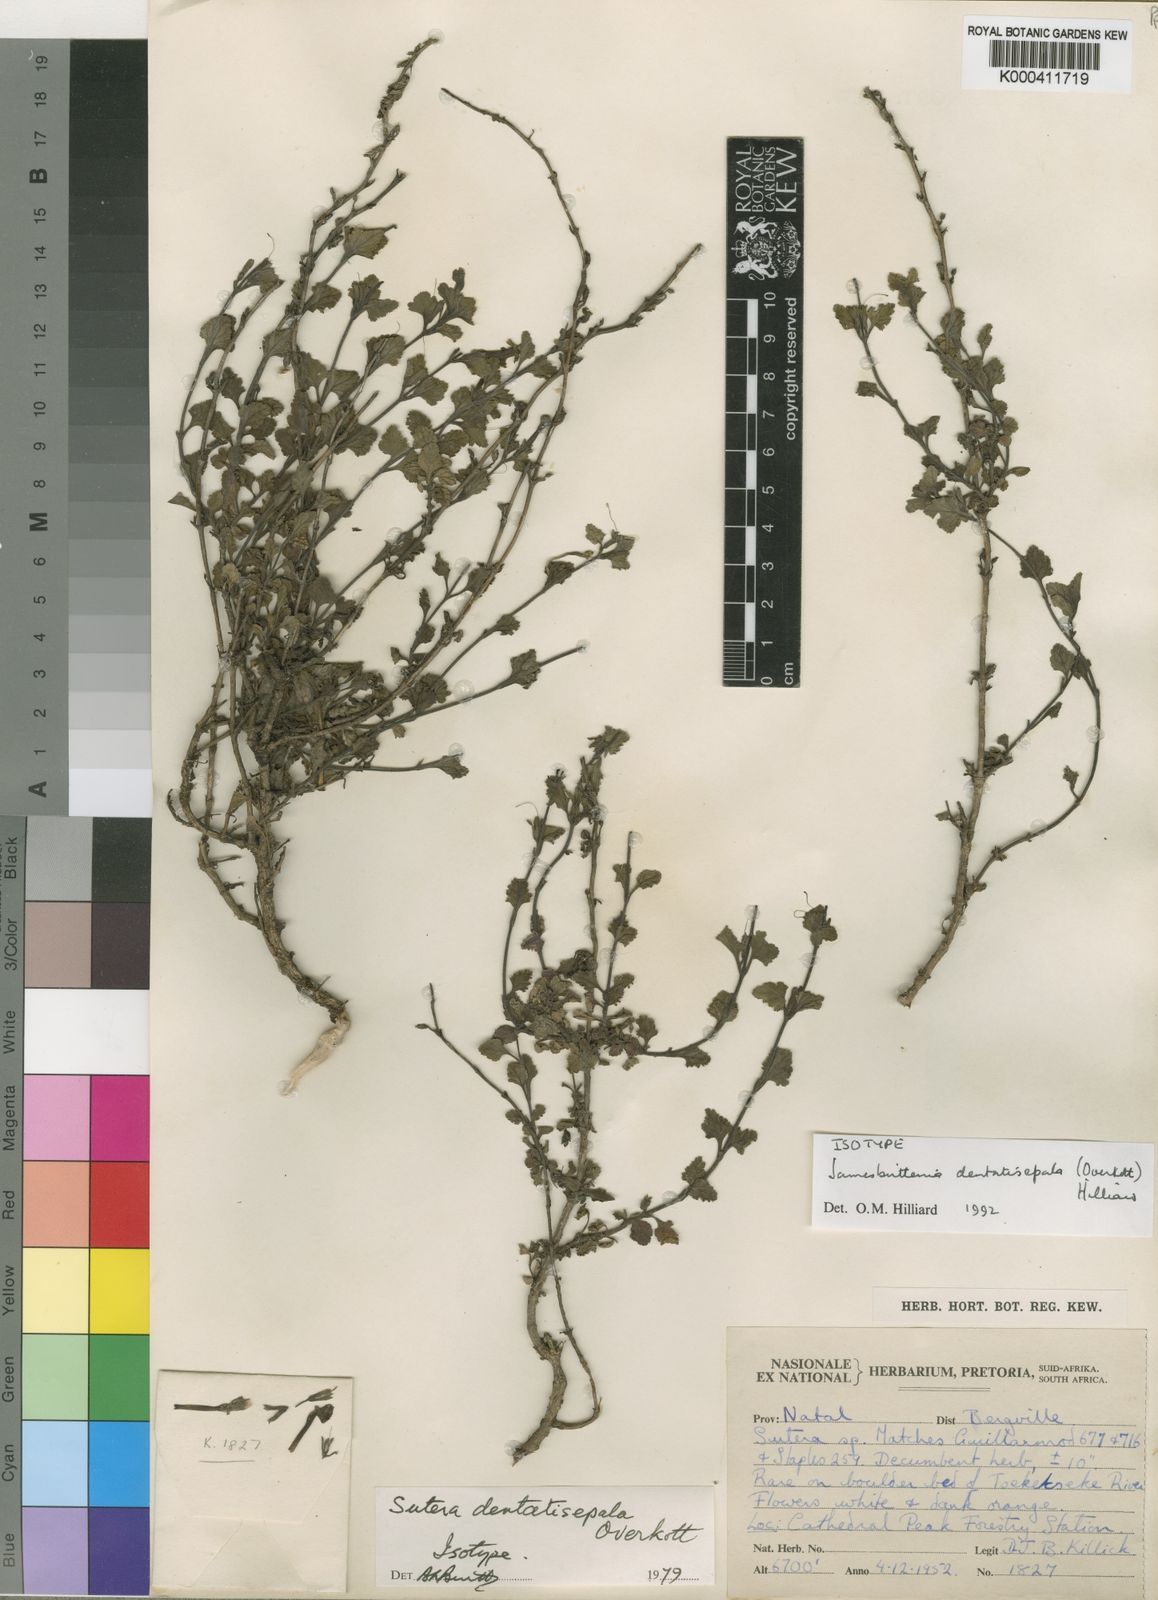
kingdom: Plantae
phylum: Tracheophyta
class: Magnoliopsida
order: Lamiales
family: Scrophulariaceae
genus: Jamesbrittenia
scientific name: Jamesbrittenia dentatisepala
